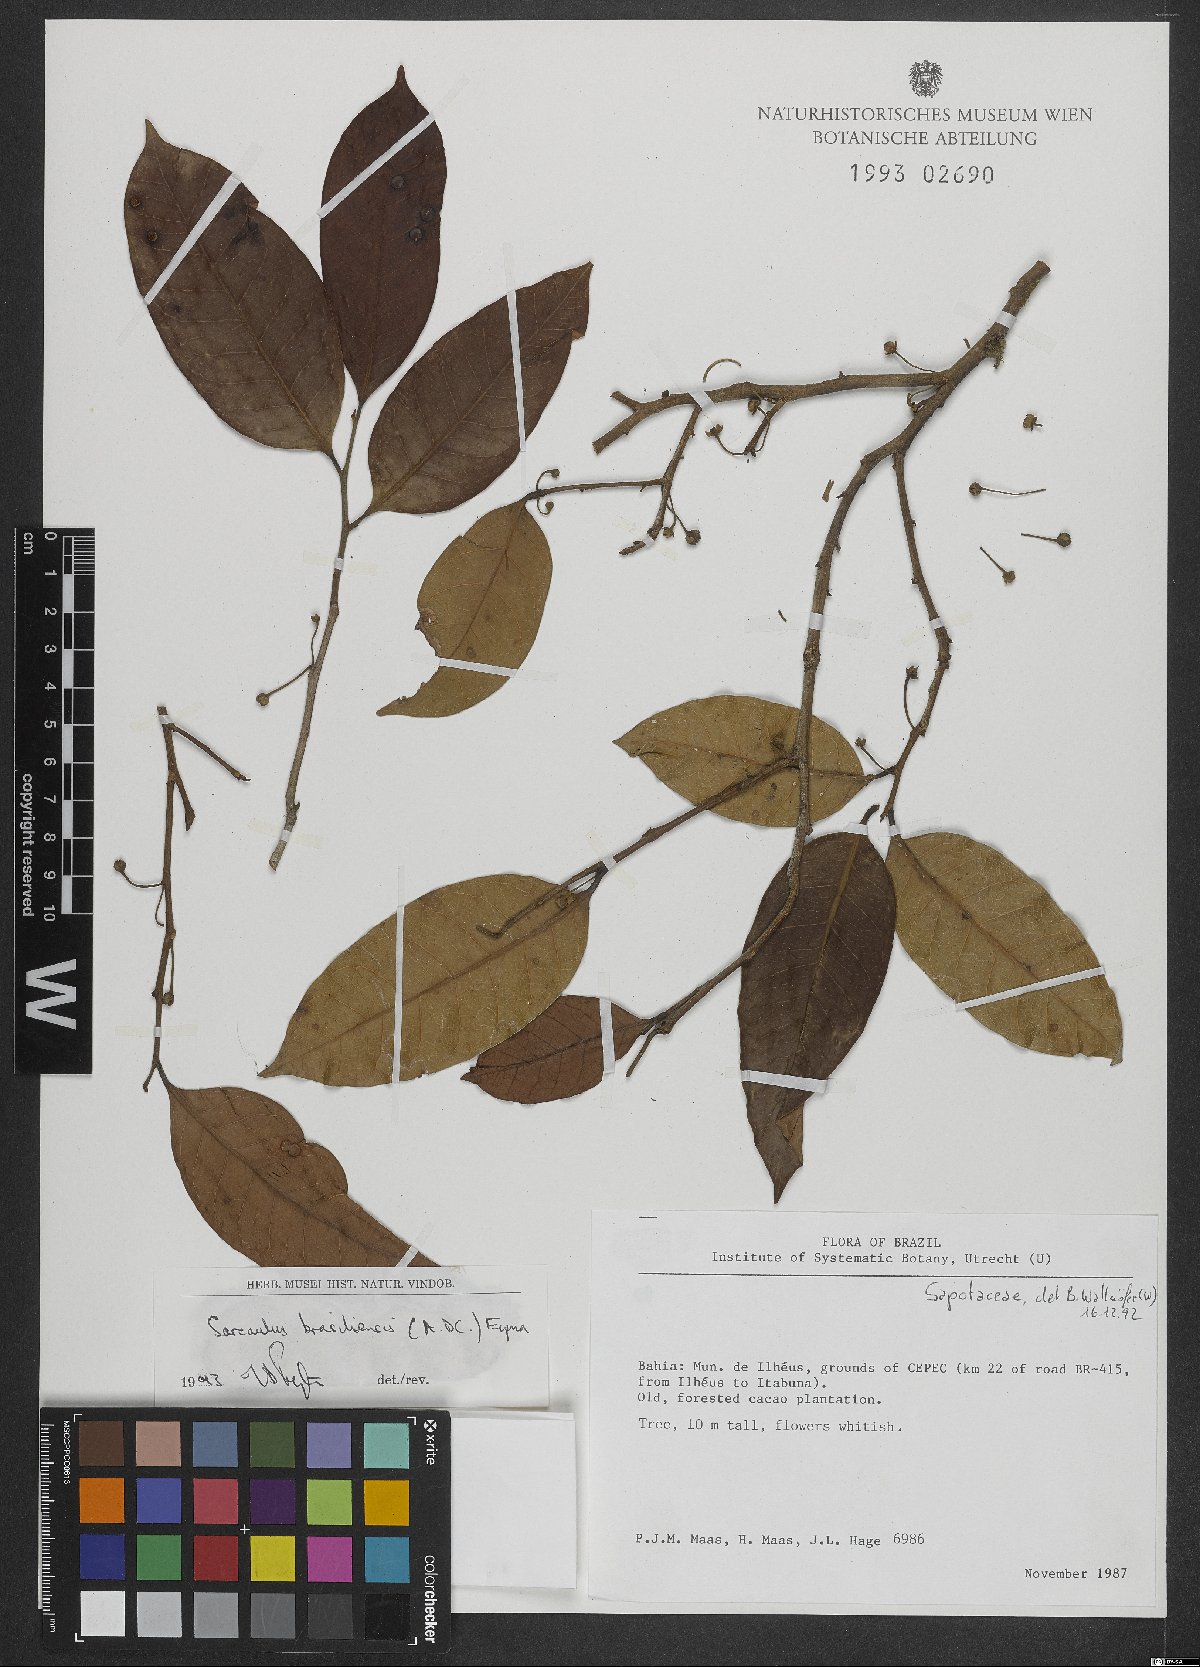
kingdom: Plantae
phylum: Tracheophyta
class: Magnoliopsida
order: Ericales
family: Sapotaceae
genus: Sarcaulus
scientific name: Sarcaulus brasiliensis
